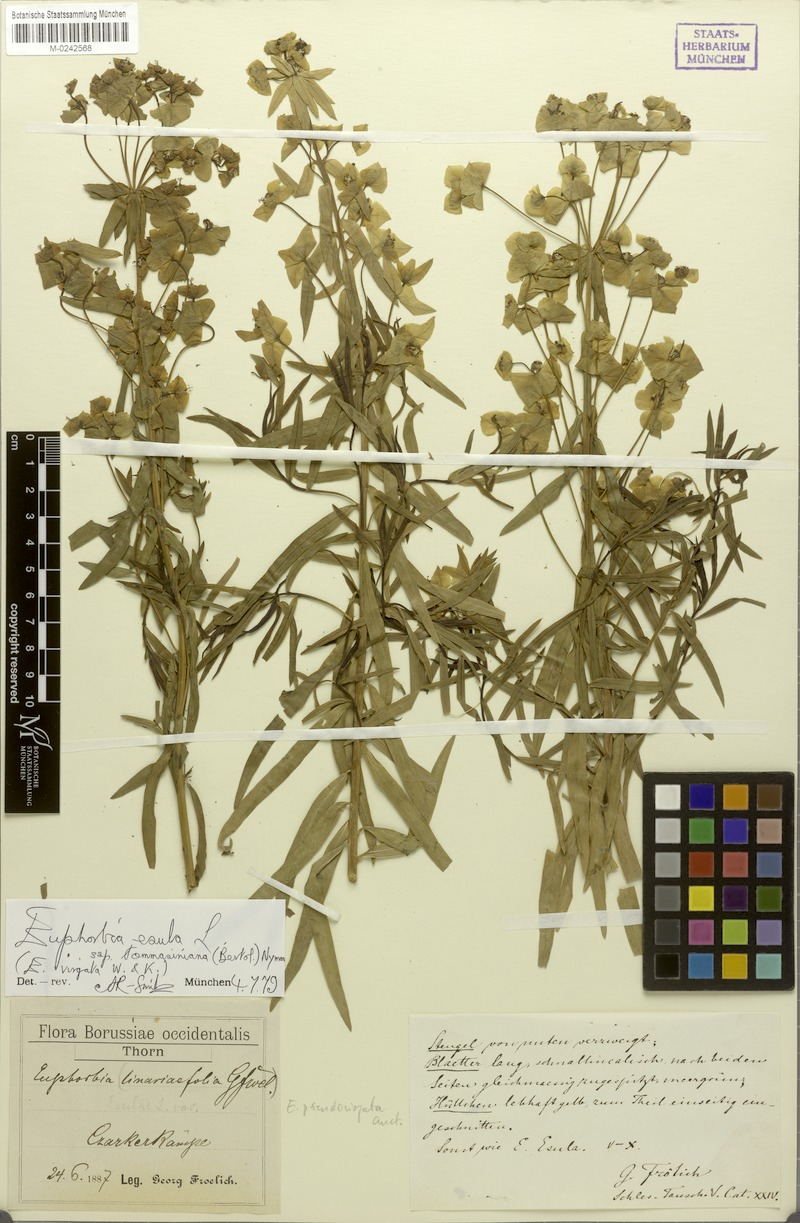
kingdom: Plantae
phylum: Tracheophyta
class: Magnoliopsida
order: Malpighiales
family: Euphorbiaceae
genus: Euphorbia
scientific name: Euphorbia tommasiniana
